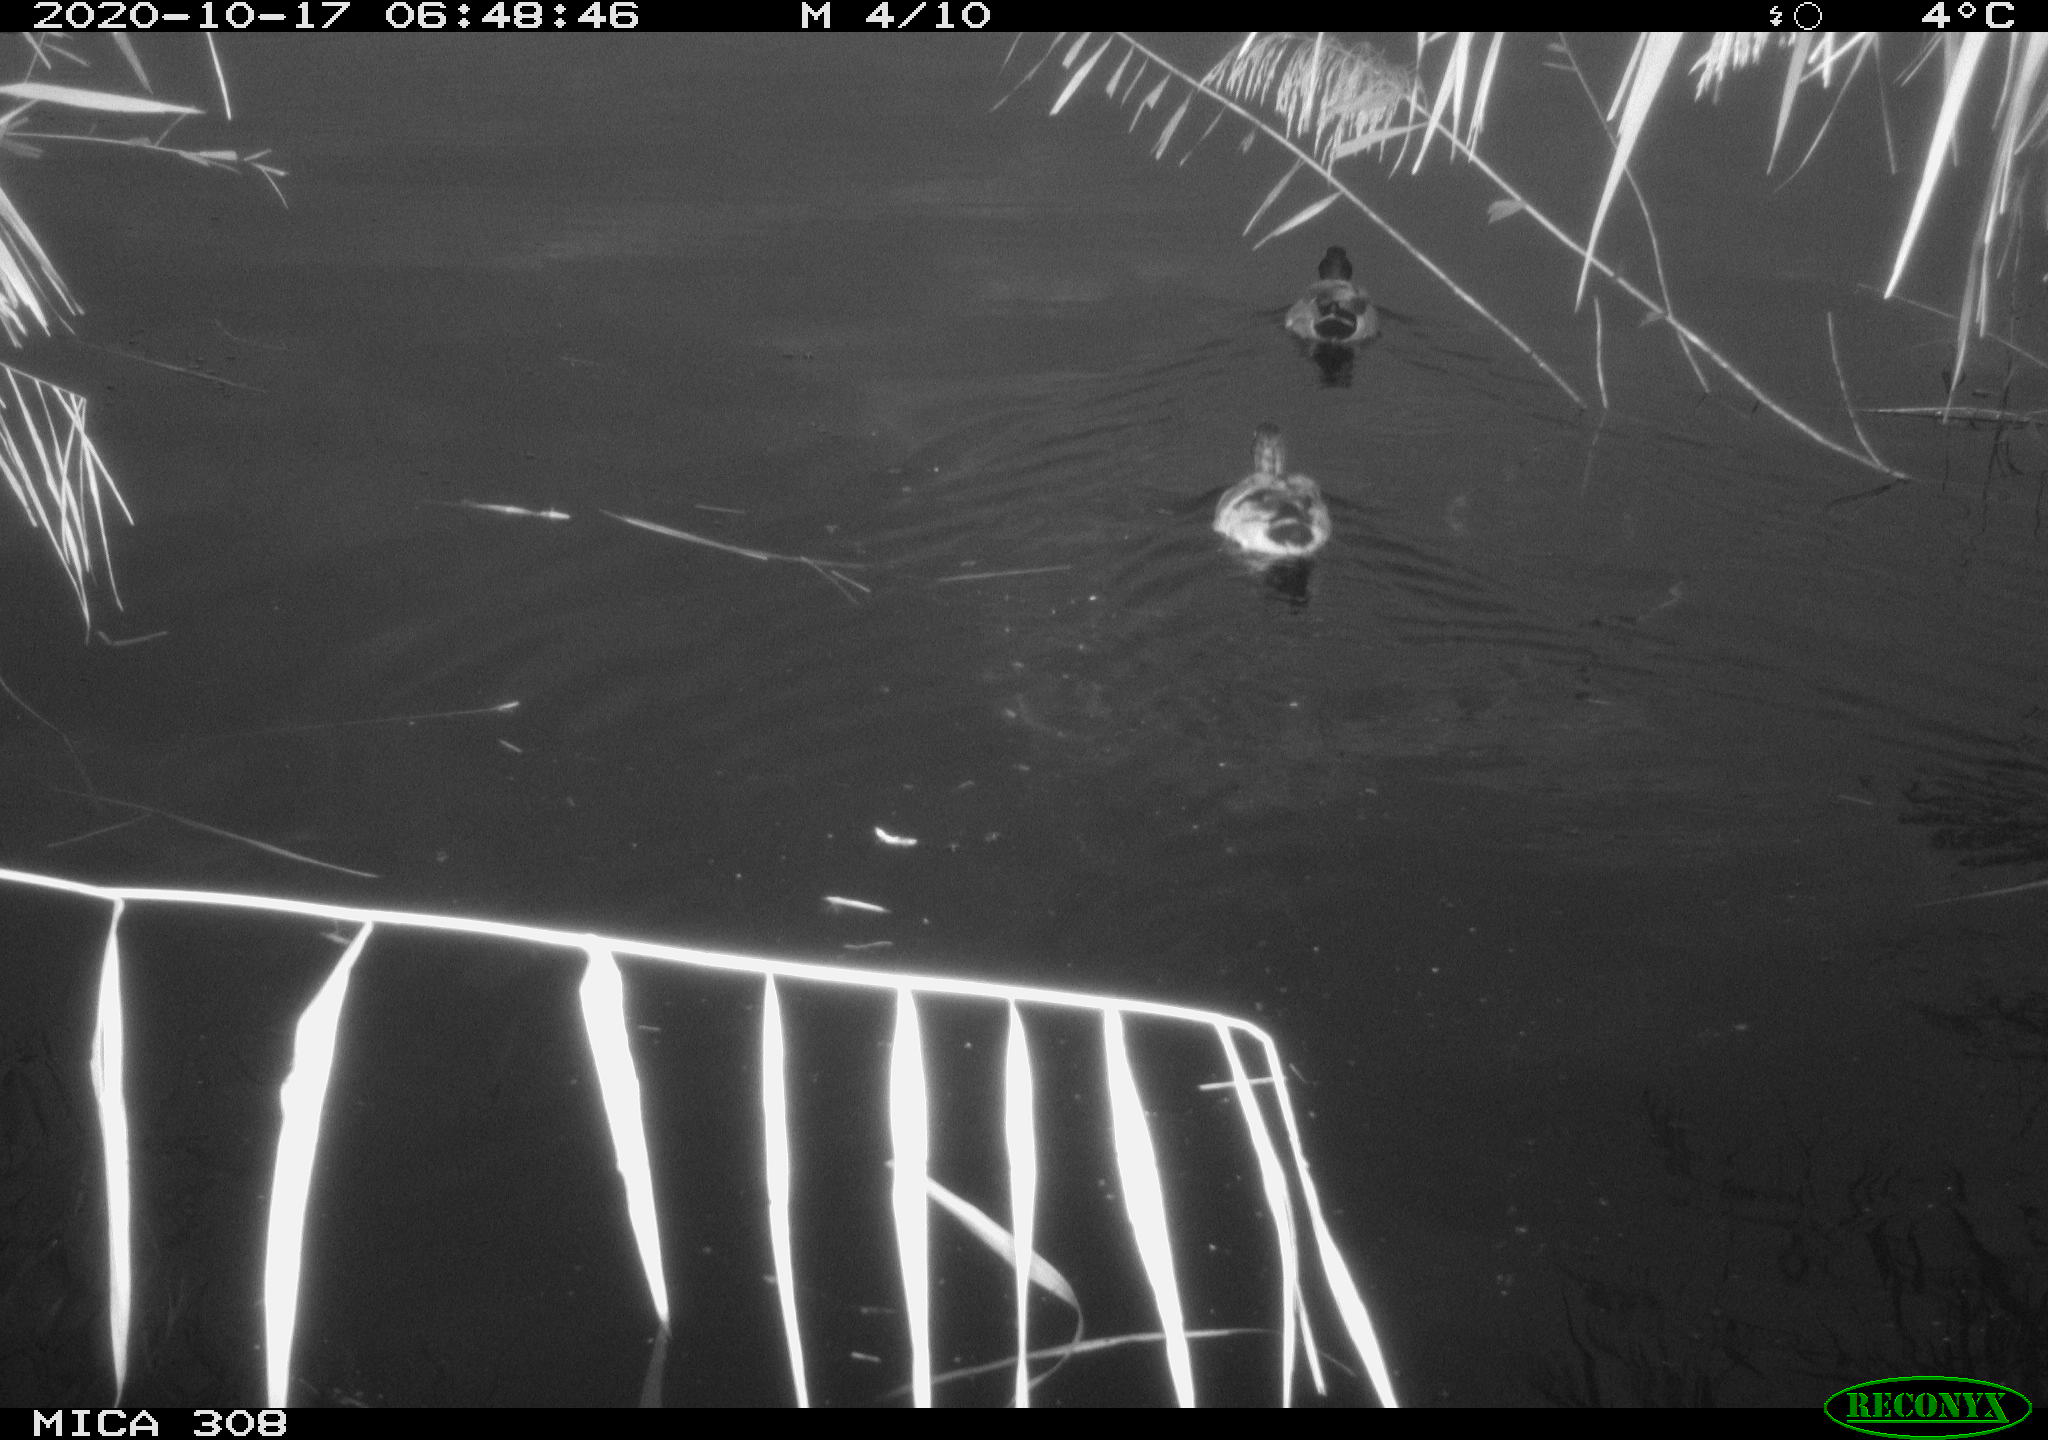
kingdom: Animalia
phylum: Chordata
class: Aves
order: Anseriformes
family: Anatidae
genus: Anas
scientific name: Anas platyrhynchos
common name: Mallard
